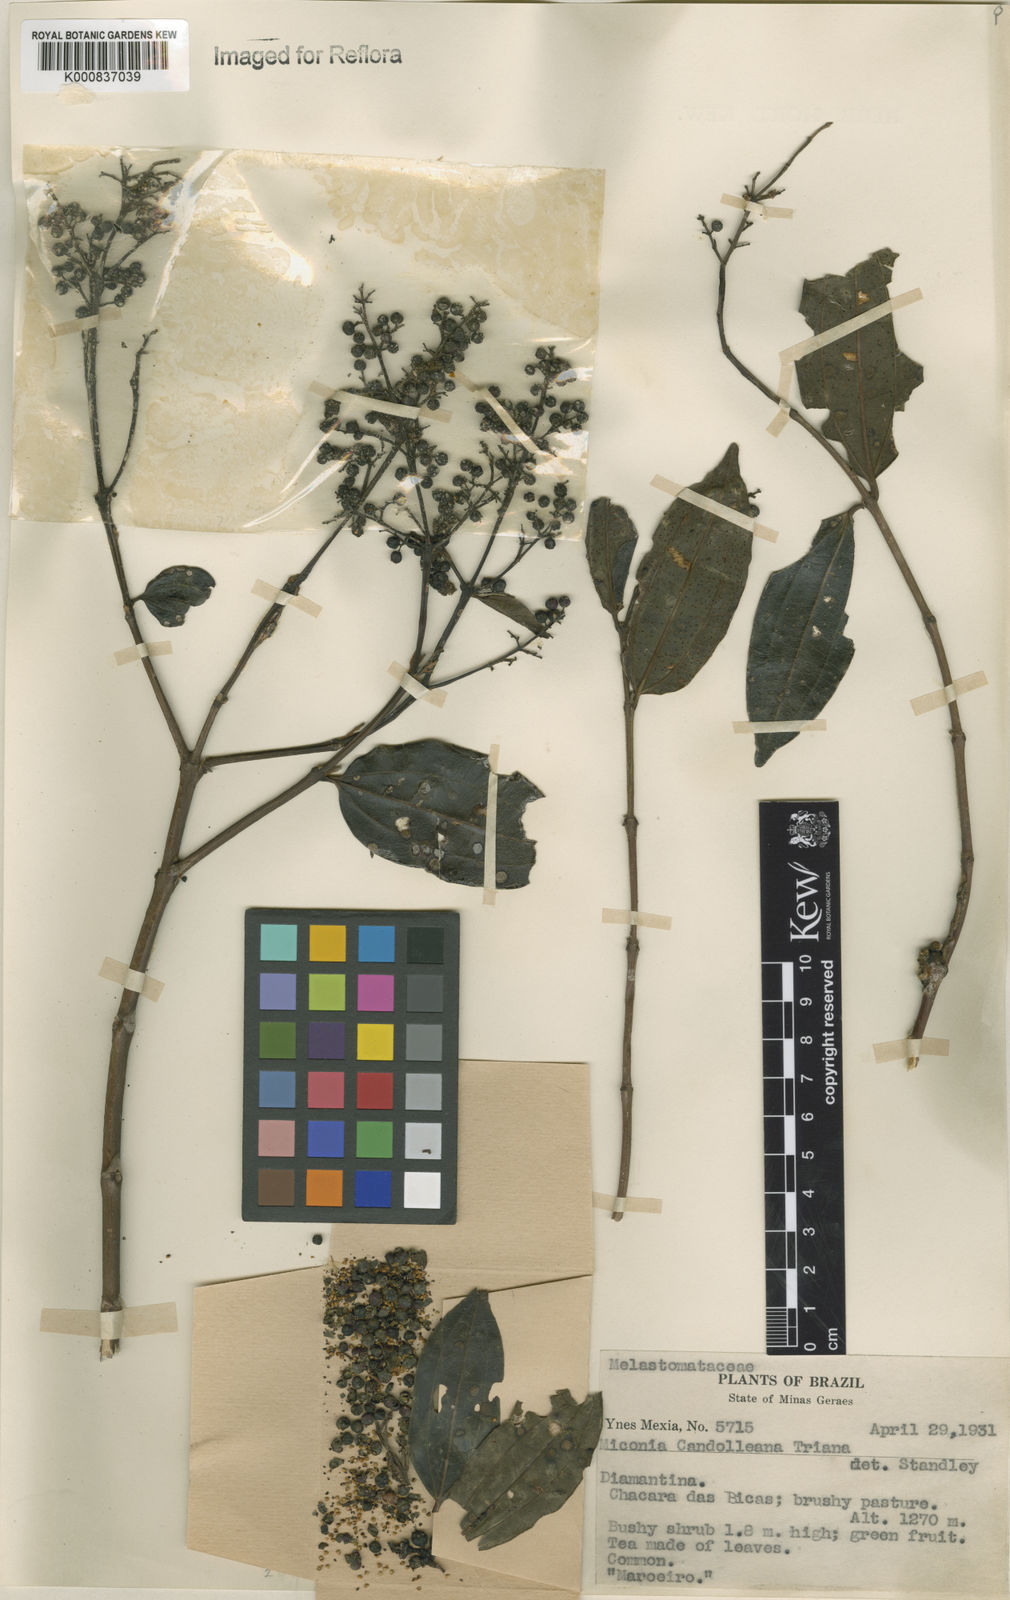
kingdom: Plantae
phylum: Tracheophyta
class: Magnoliopsida
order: Myrtales
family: Melastomataceae
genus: Miconia
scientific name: Miconia cinnamomifolia
